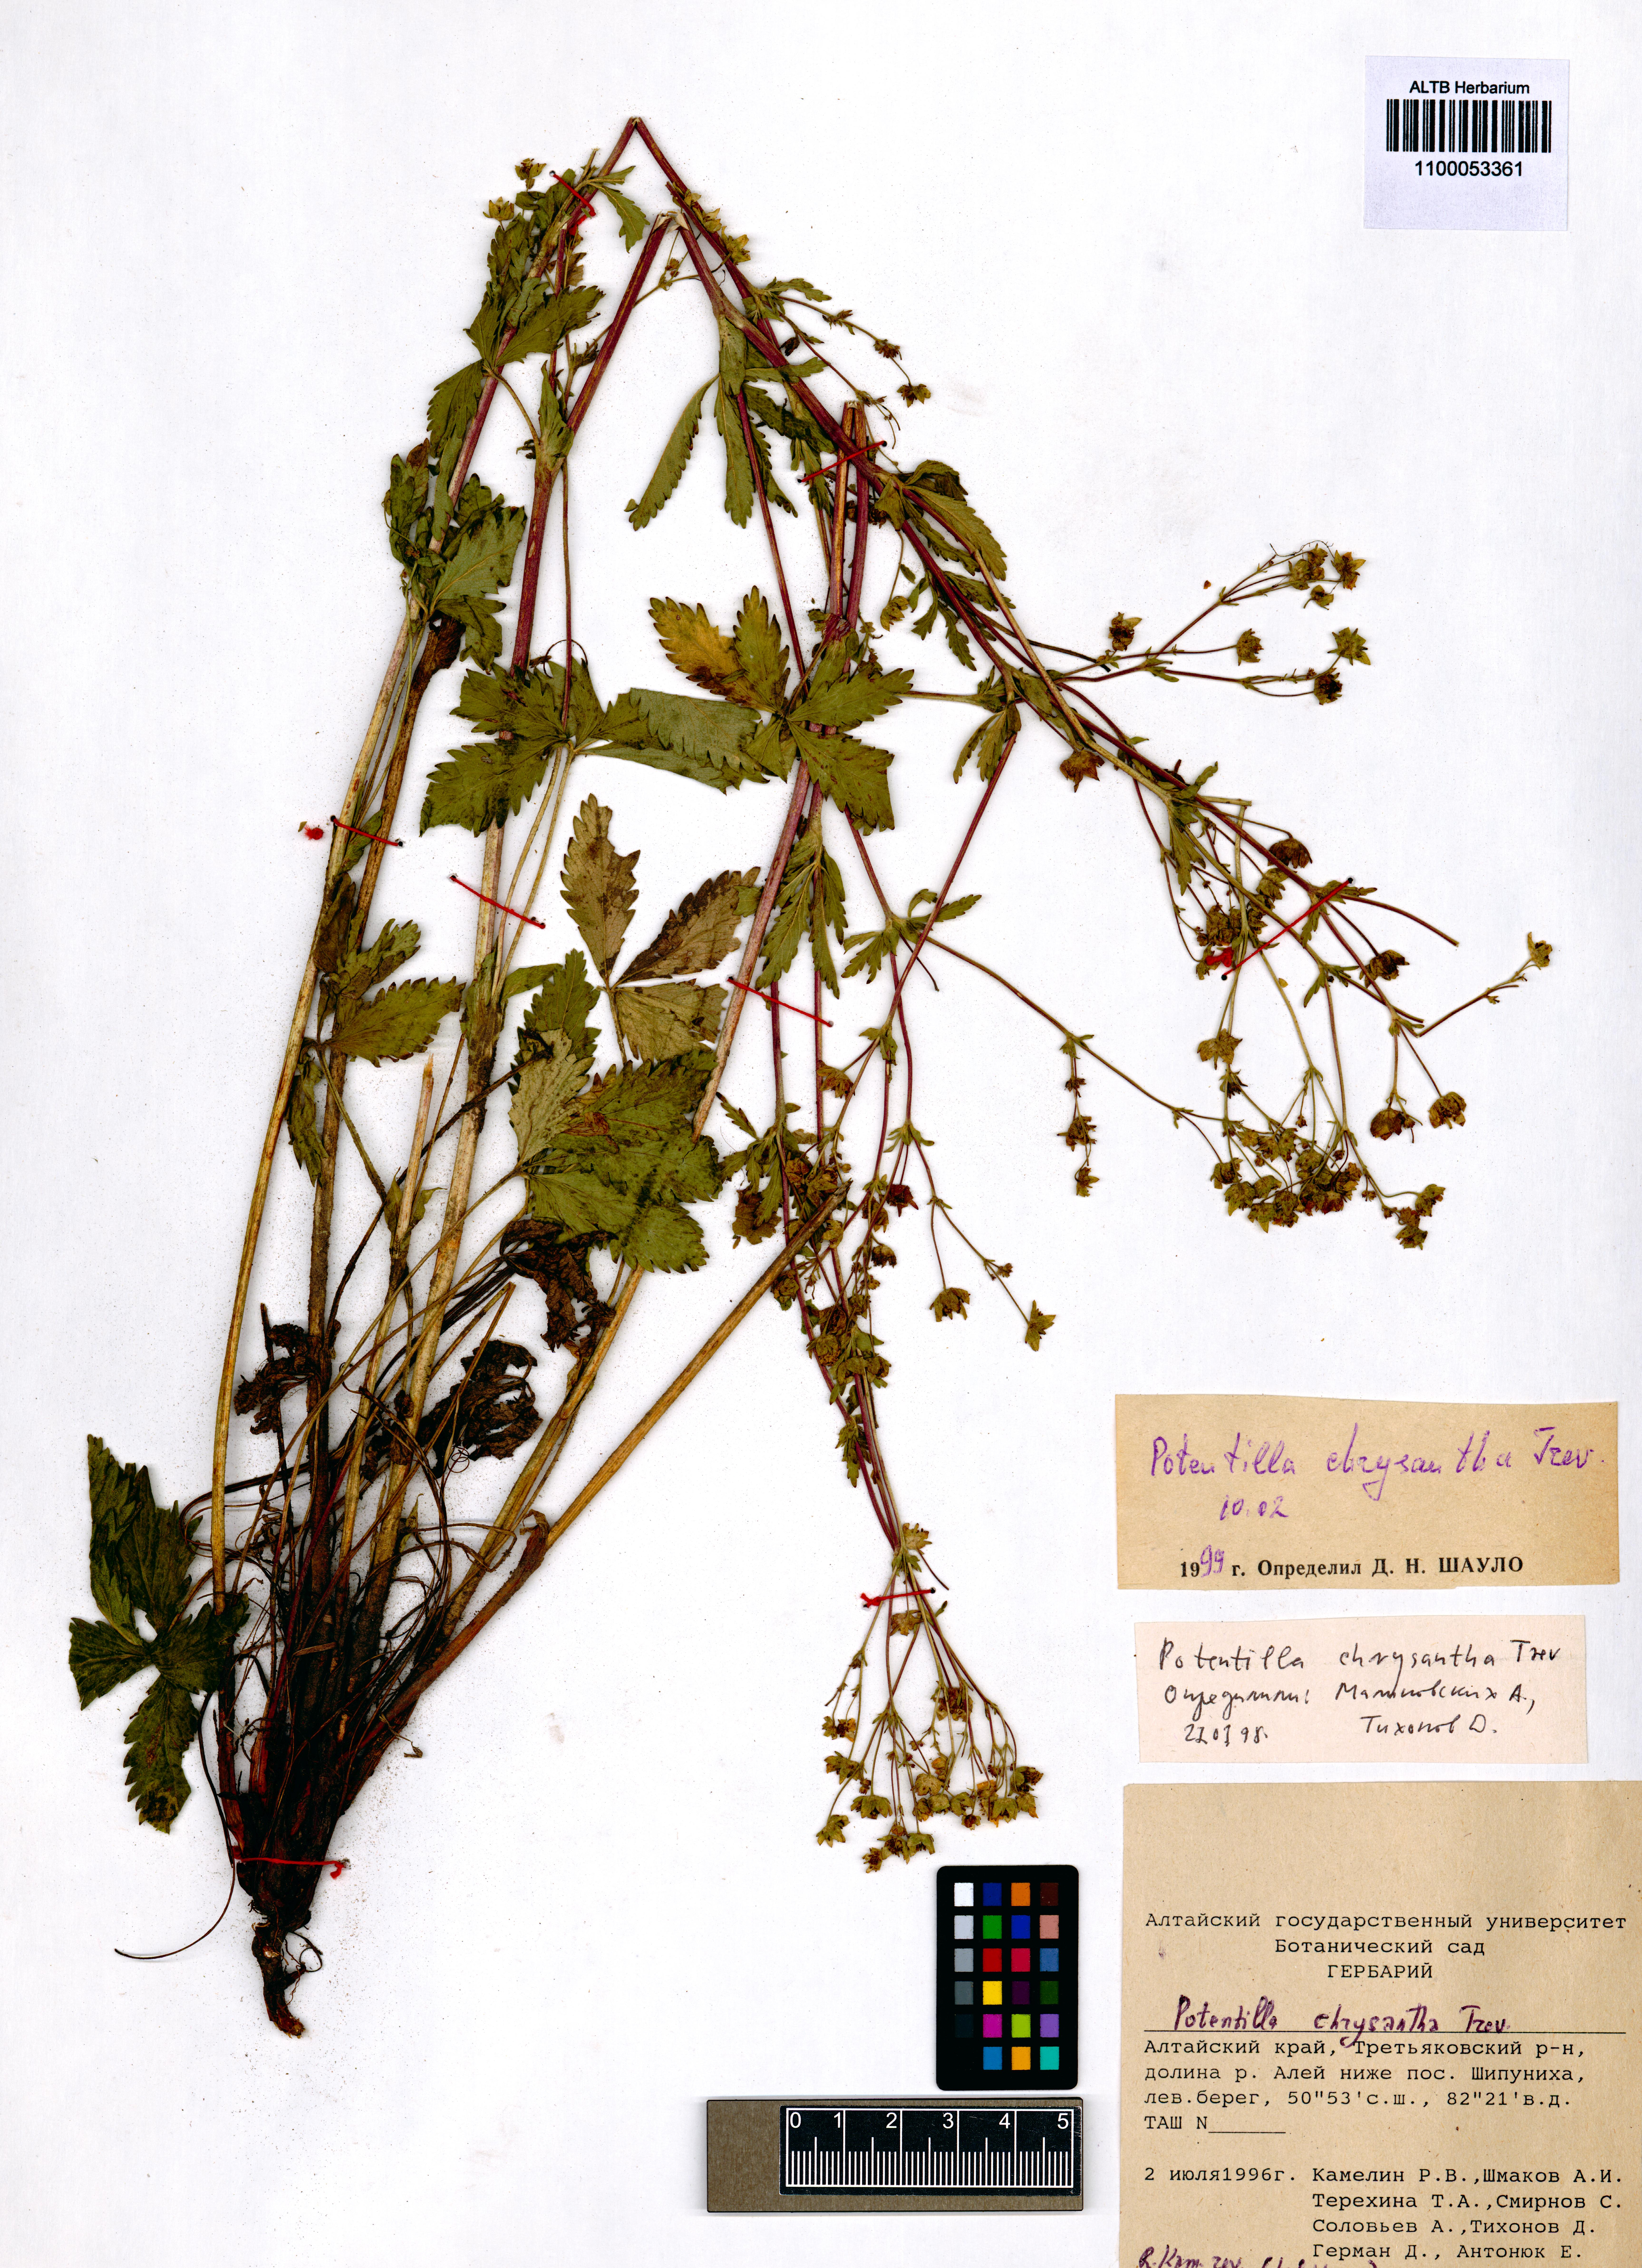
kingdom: Plantae
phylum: Tracheophyta
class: Magnoliopsida
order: Rosales
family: Rosaceae
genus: Potentilla
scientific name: Potentilla chrysantha
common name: Thuringian cinquefoil
